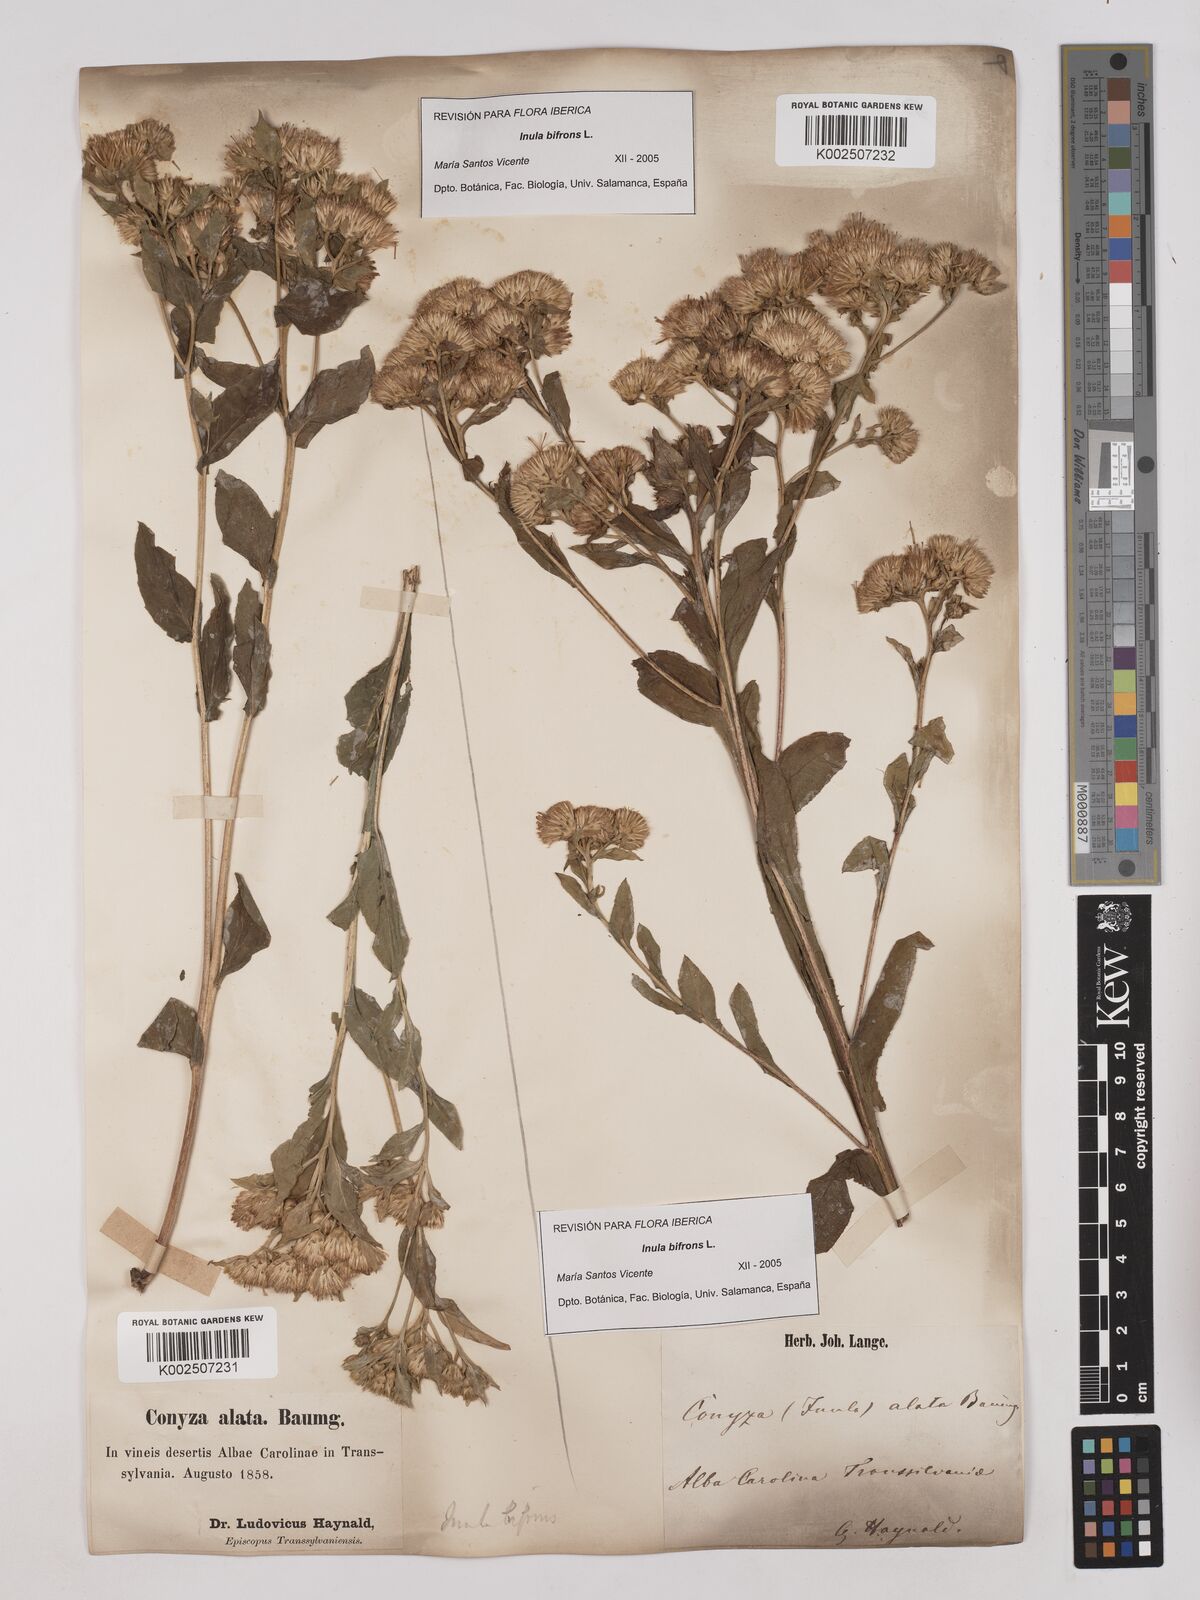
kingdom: Plantae
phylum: Tracheophyta
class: Magnoliopsida
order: Asterales
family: Asteraceae
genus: Pentanema
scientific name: Pentanema bifrons
